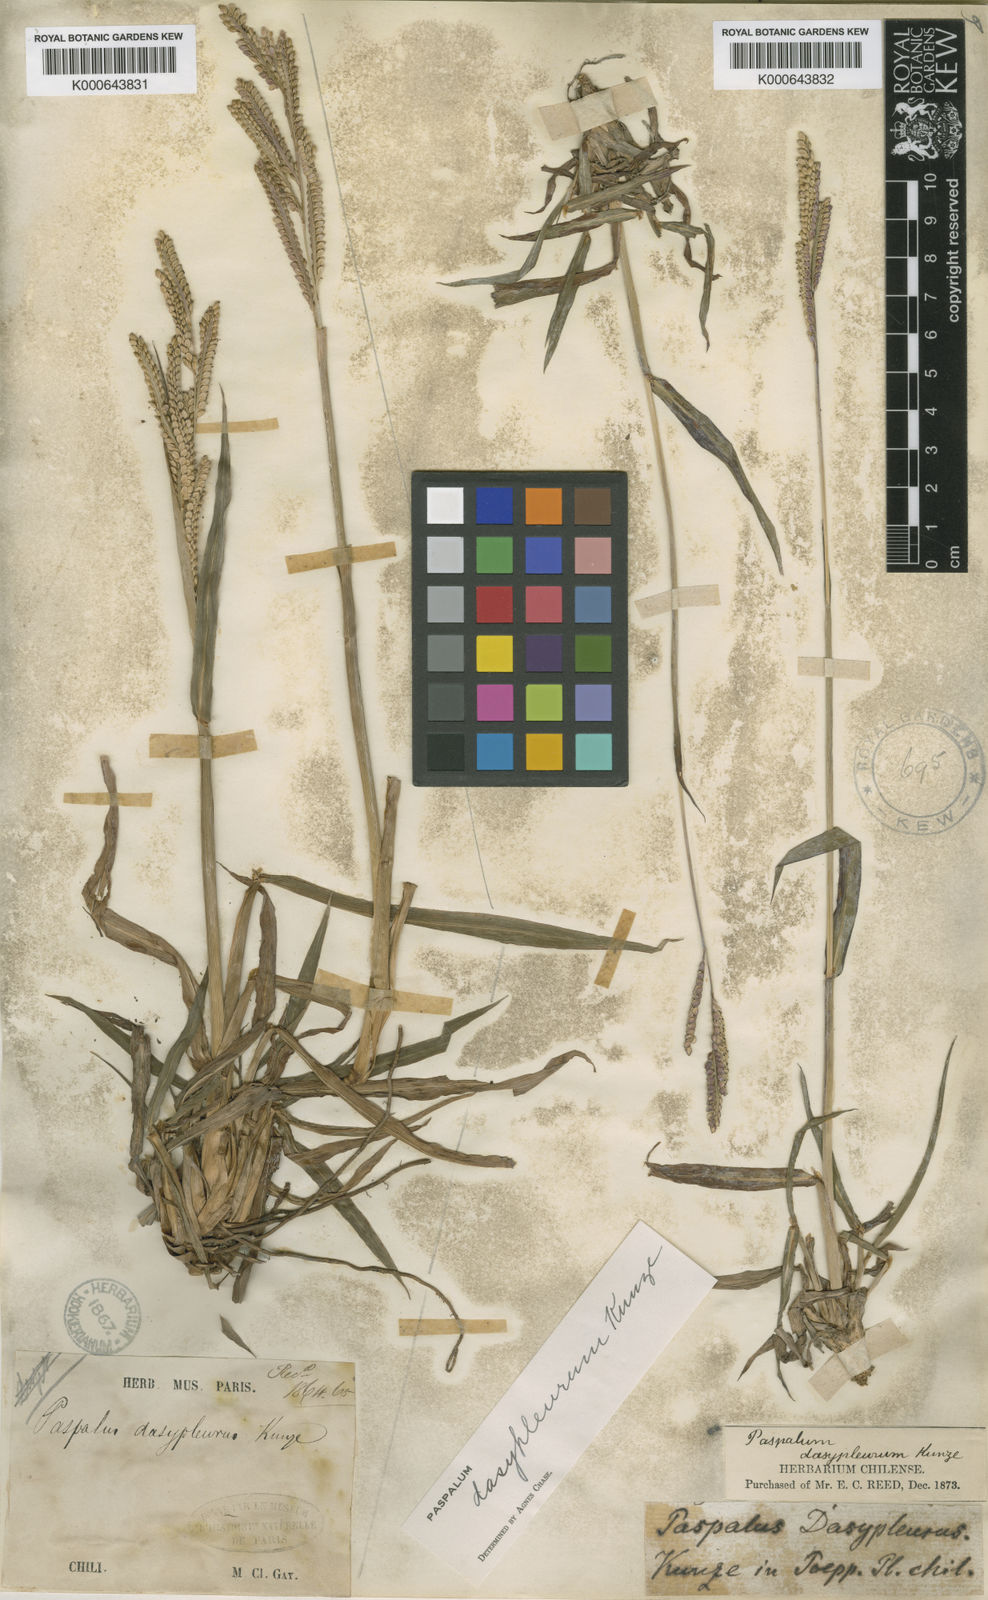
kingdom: Plantae
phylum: Tracheophyta
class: Liliopsida
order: Poales
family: Poaceae
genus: Paspalum
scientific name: Paspalum dasypleurum
